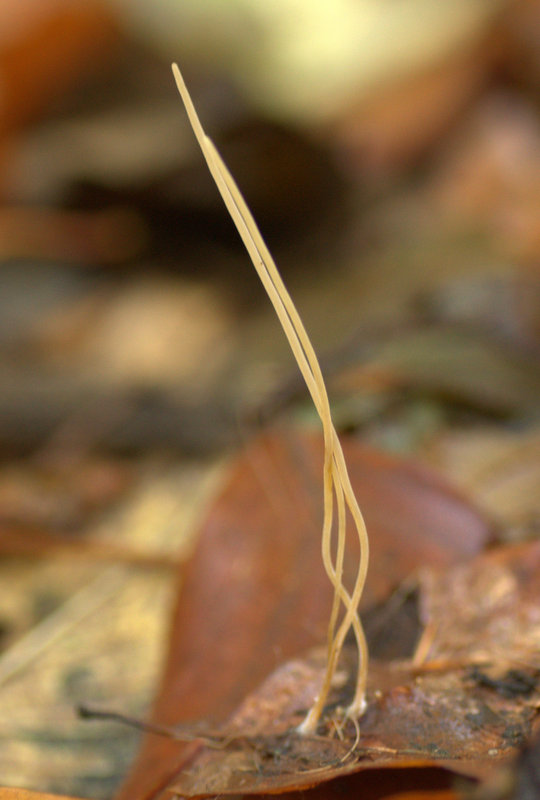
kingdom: Fungi
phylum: Basidiomycota
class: Agaricomycetes
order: Agaricales
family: Typhulaceae
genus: Typhula
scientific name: Typhula juncea
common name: trådagtig rørkølle
